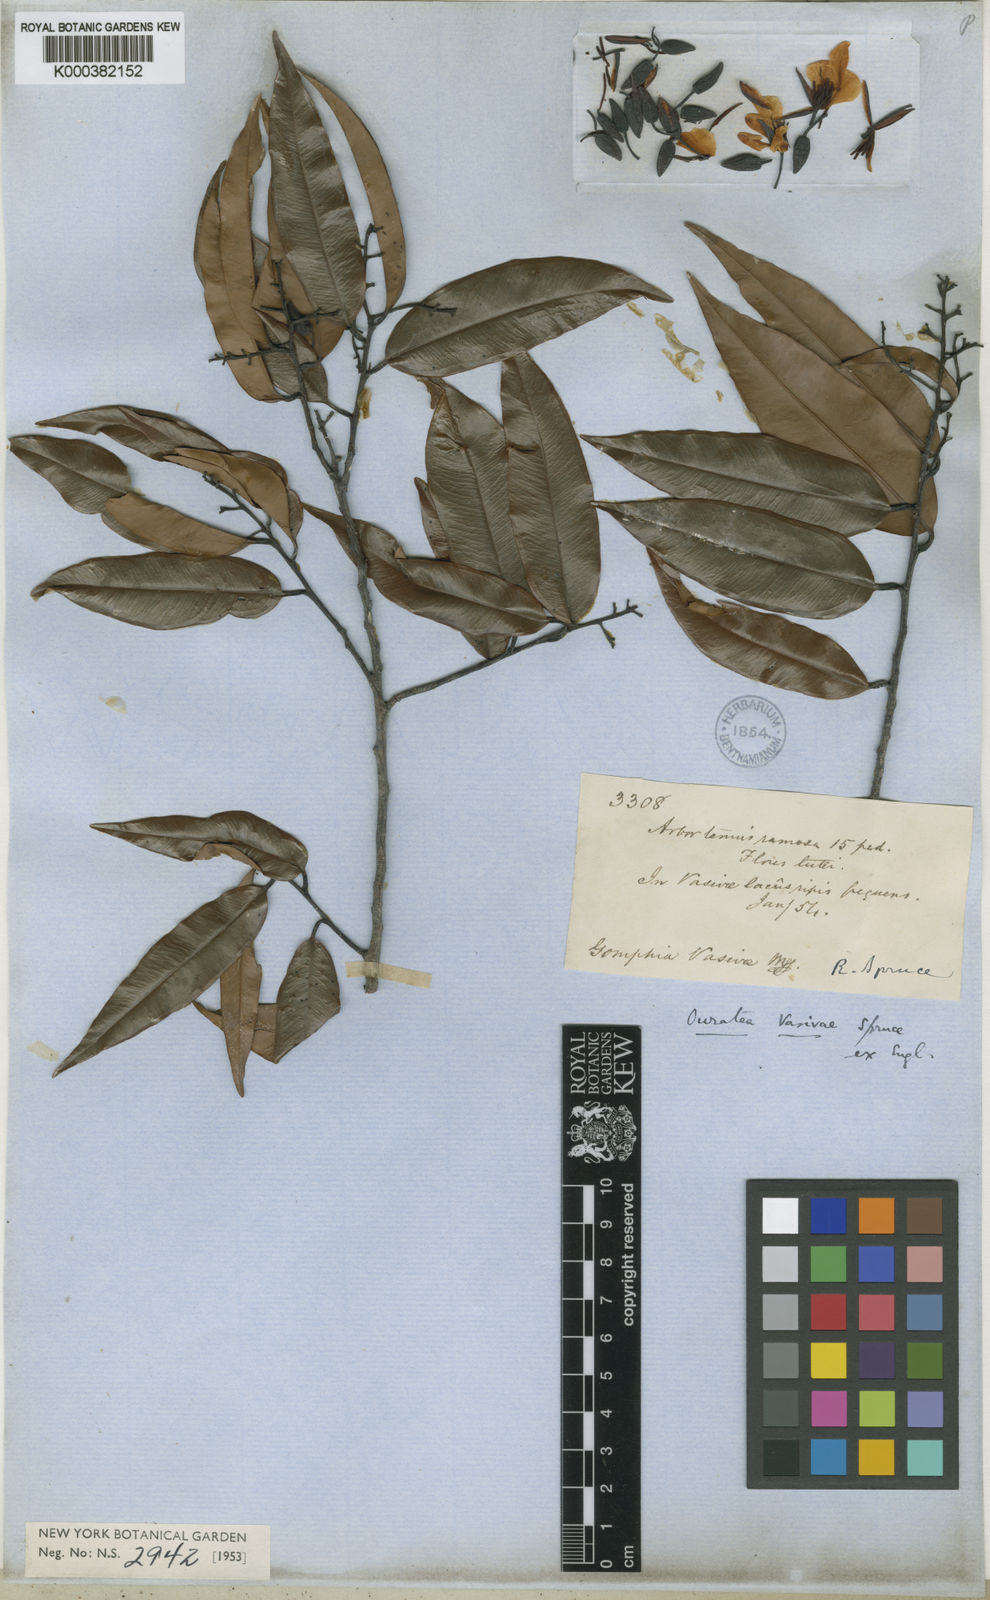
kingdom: Plantae
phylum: Tracheophyta
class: Magnoliopsida
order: Malpighiales
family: Ochnaceae
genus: Ouratea
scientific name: Ouratea grandiflora
